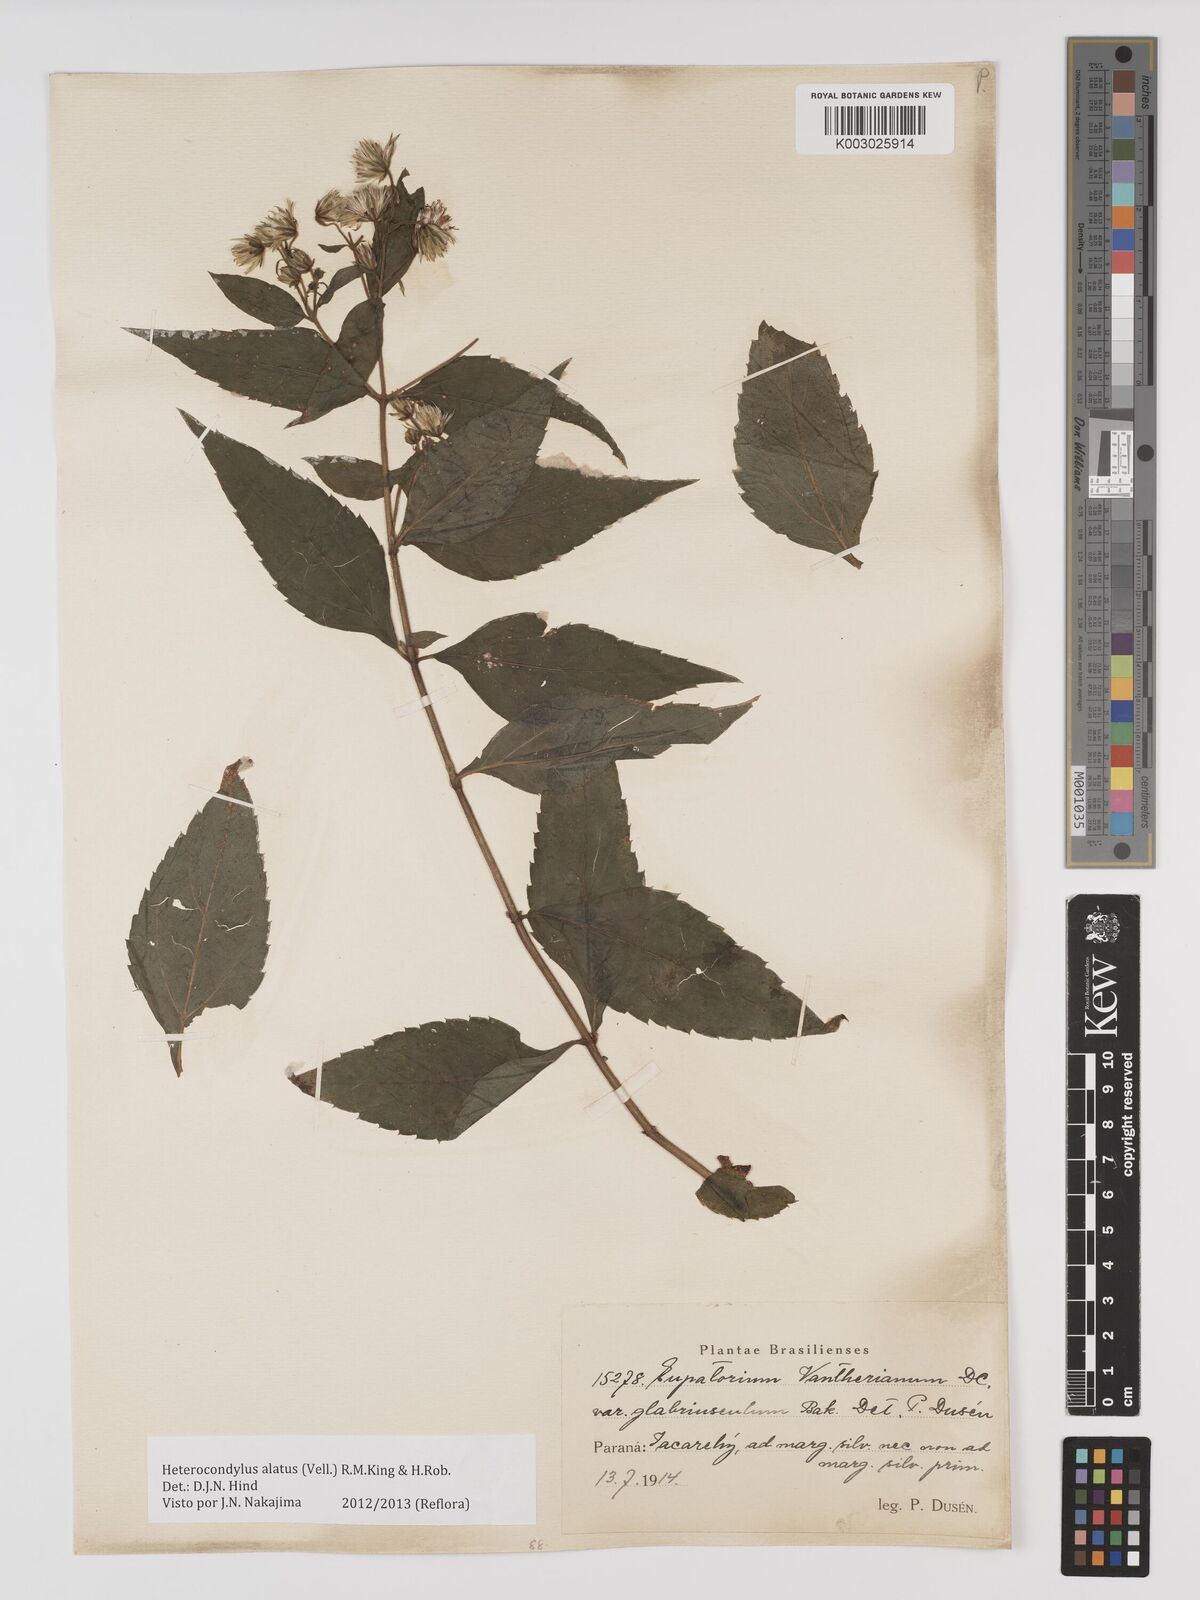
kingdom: Plantae
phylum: Tracheophyta
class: Magnoliopsida
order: Asterales
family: Asteraceae
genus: Heterocondylus
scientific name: Heterocondylus alatus
